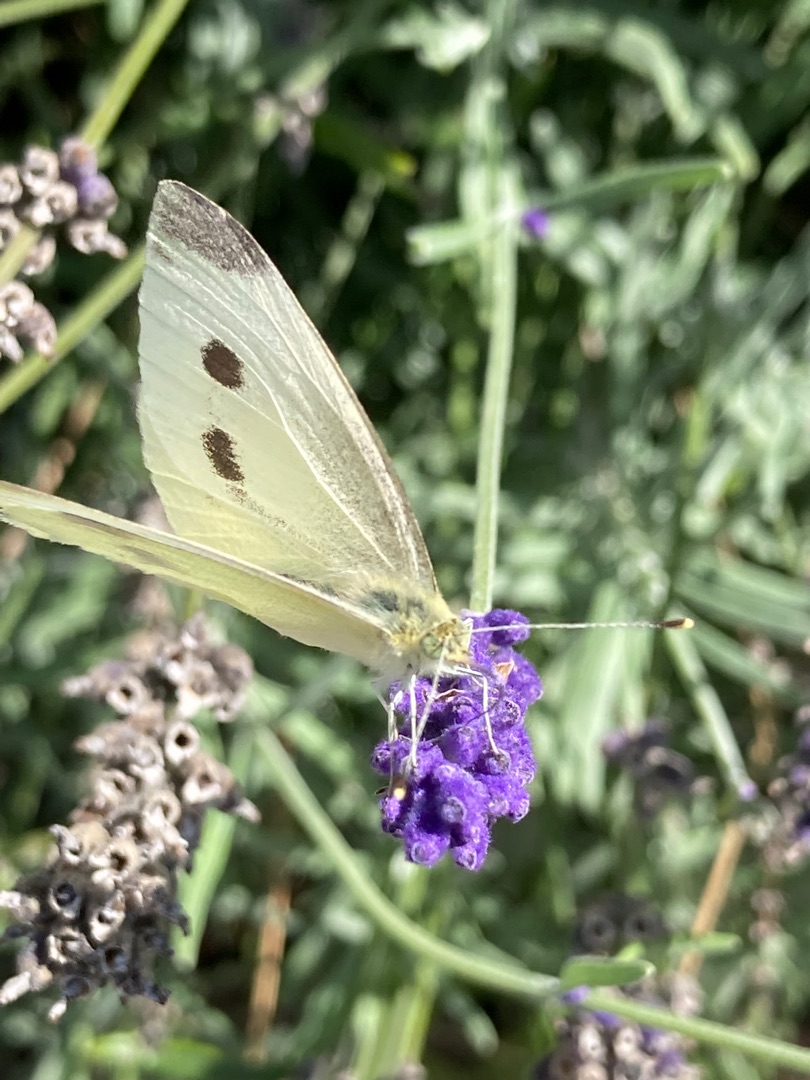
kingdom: Animalia
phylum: Arthropoda
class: Insecta
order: Lepidoptera
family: Pieridae
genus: Pieris
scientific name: Pieris rapae
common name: Lille kålsommerfugl
